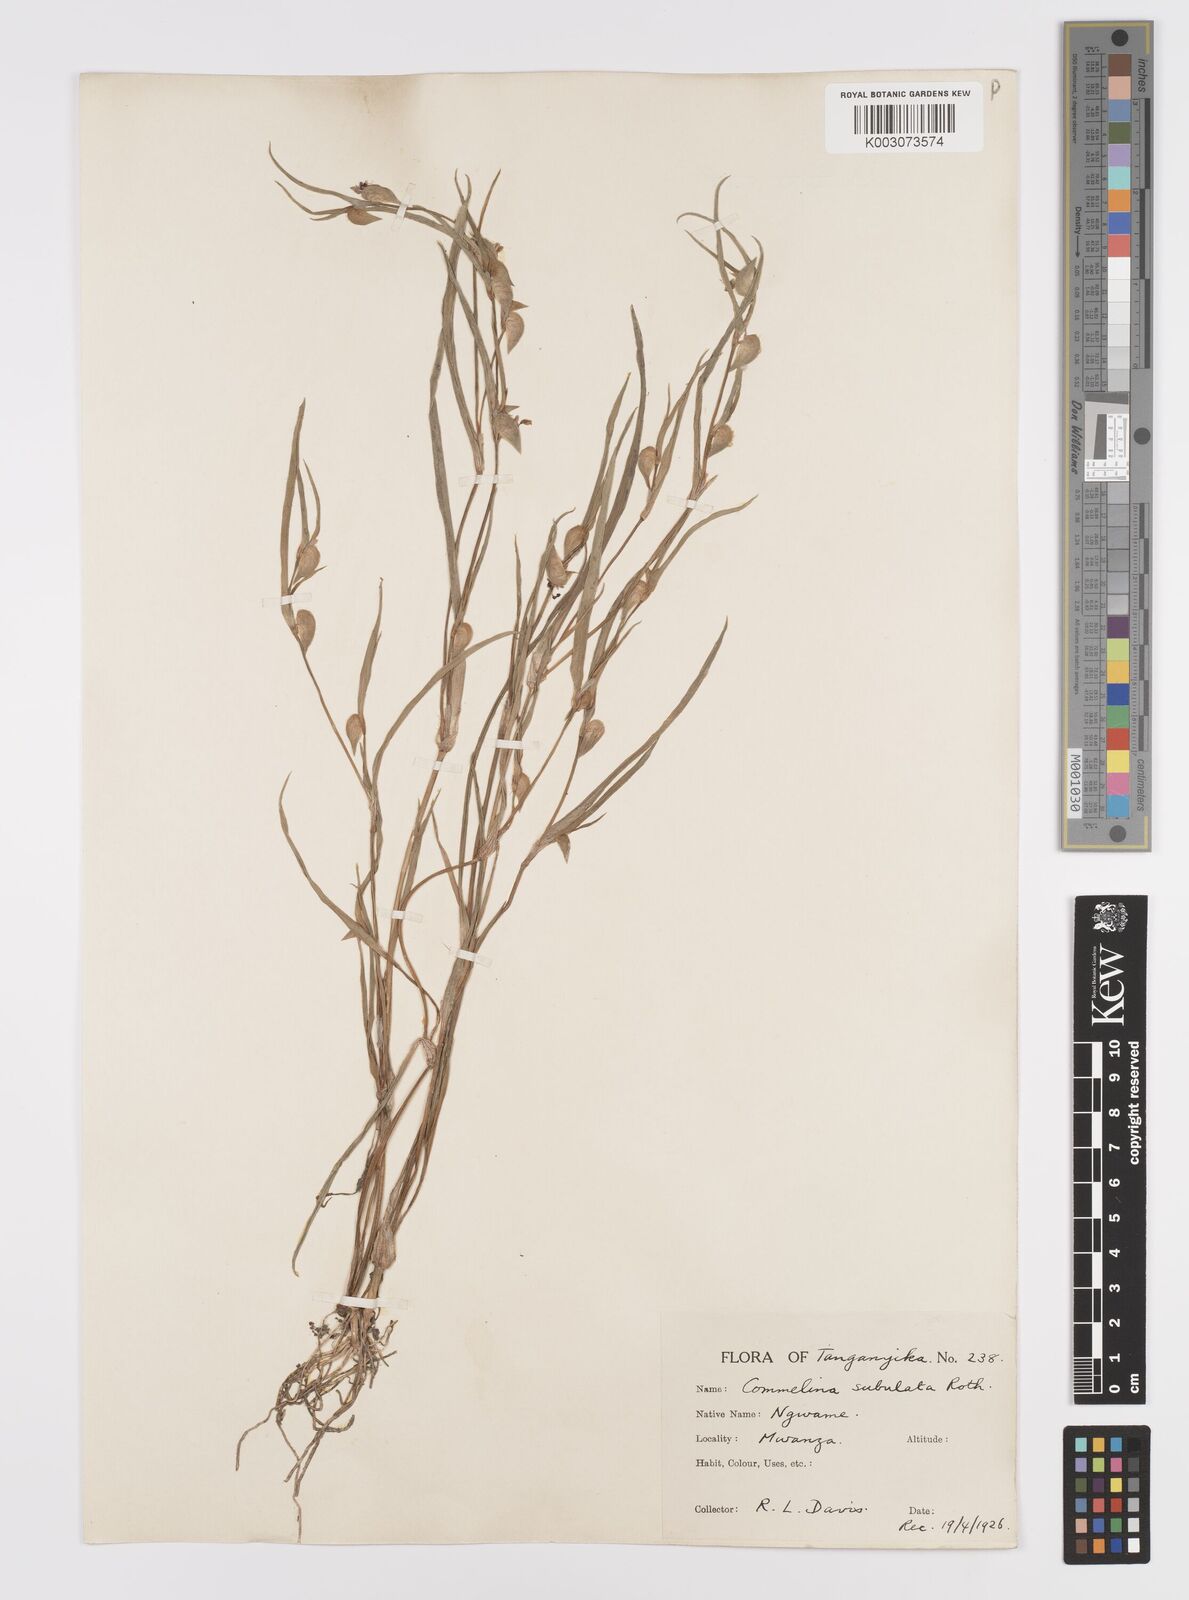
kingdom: Plantae
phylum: Tracheophyta
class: Liliopsida
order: Commelinales
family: Commelinaceae
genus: Commelina
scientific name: Commelina subulata
